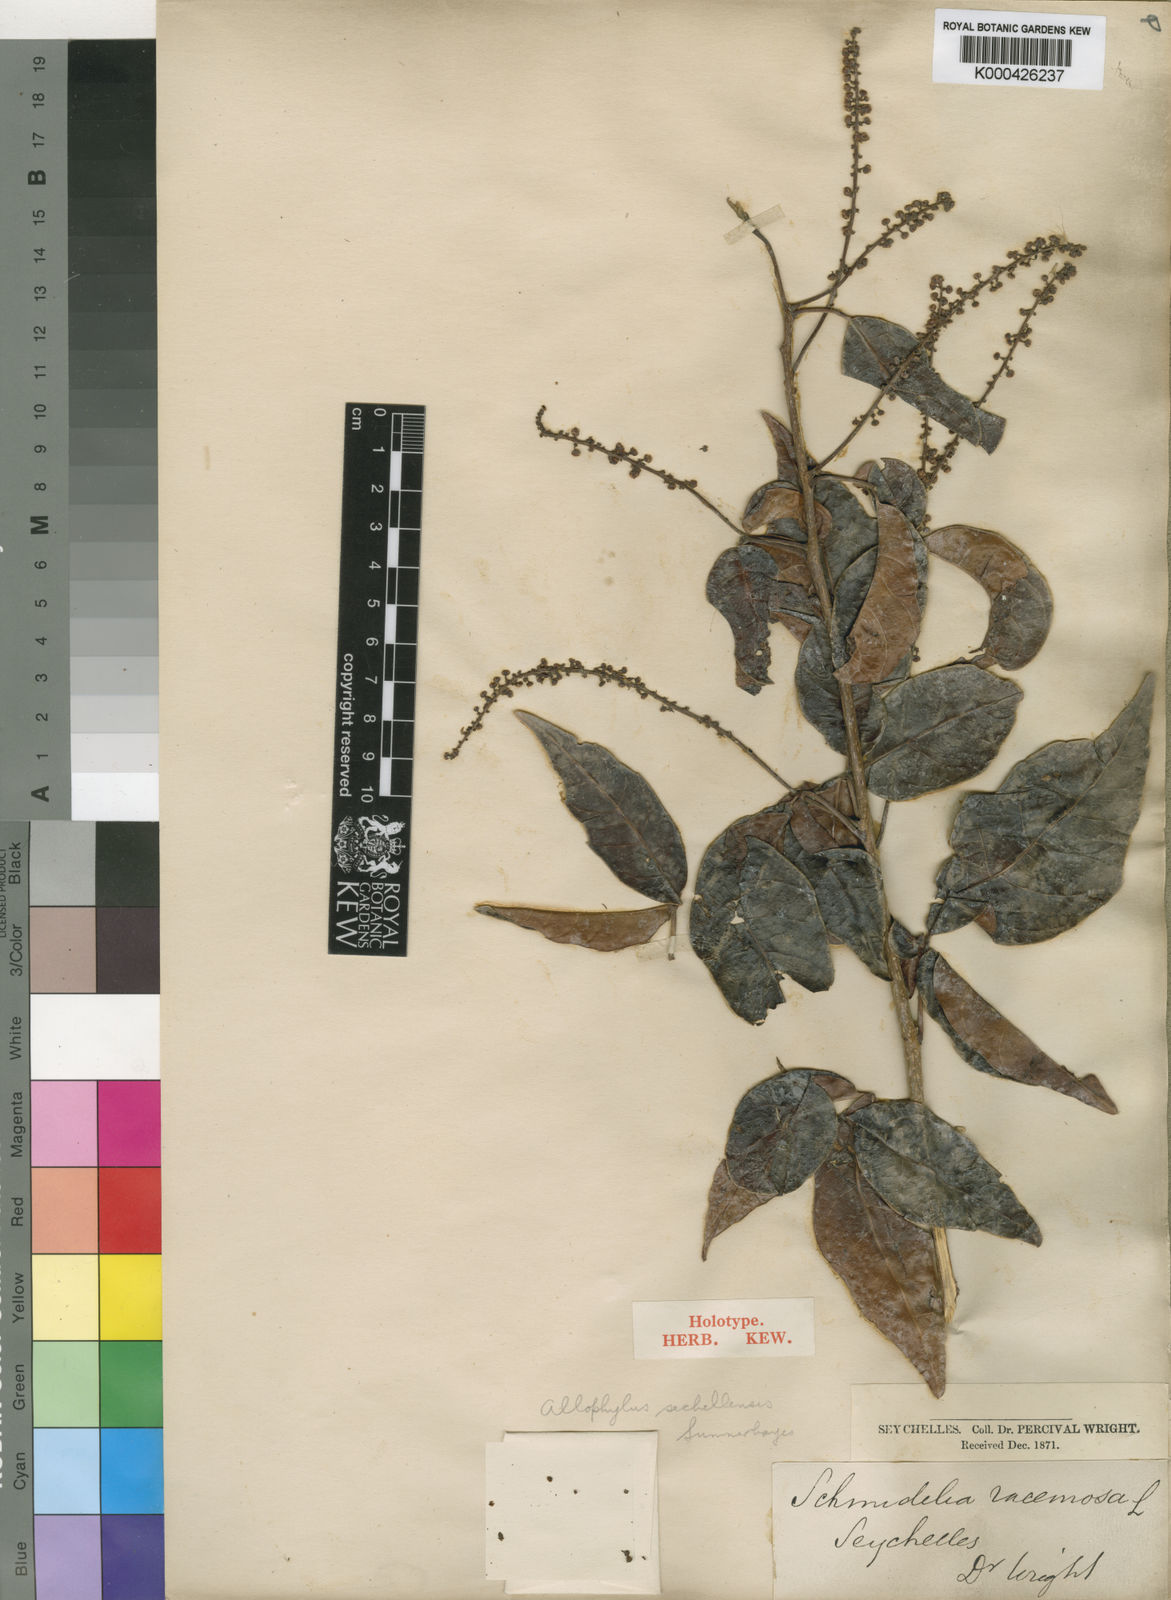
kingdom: Plantae
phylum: Tracheophyta
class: Magnoliopsida
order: Sapindales
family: Sapindaceae
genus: Allophylus
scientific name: Allophylus sechellensis
